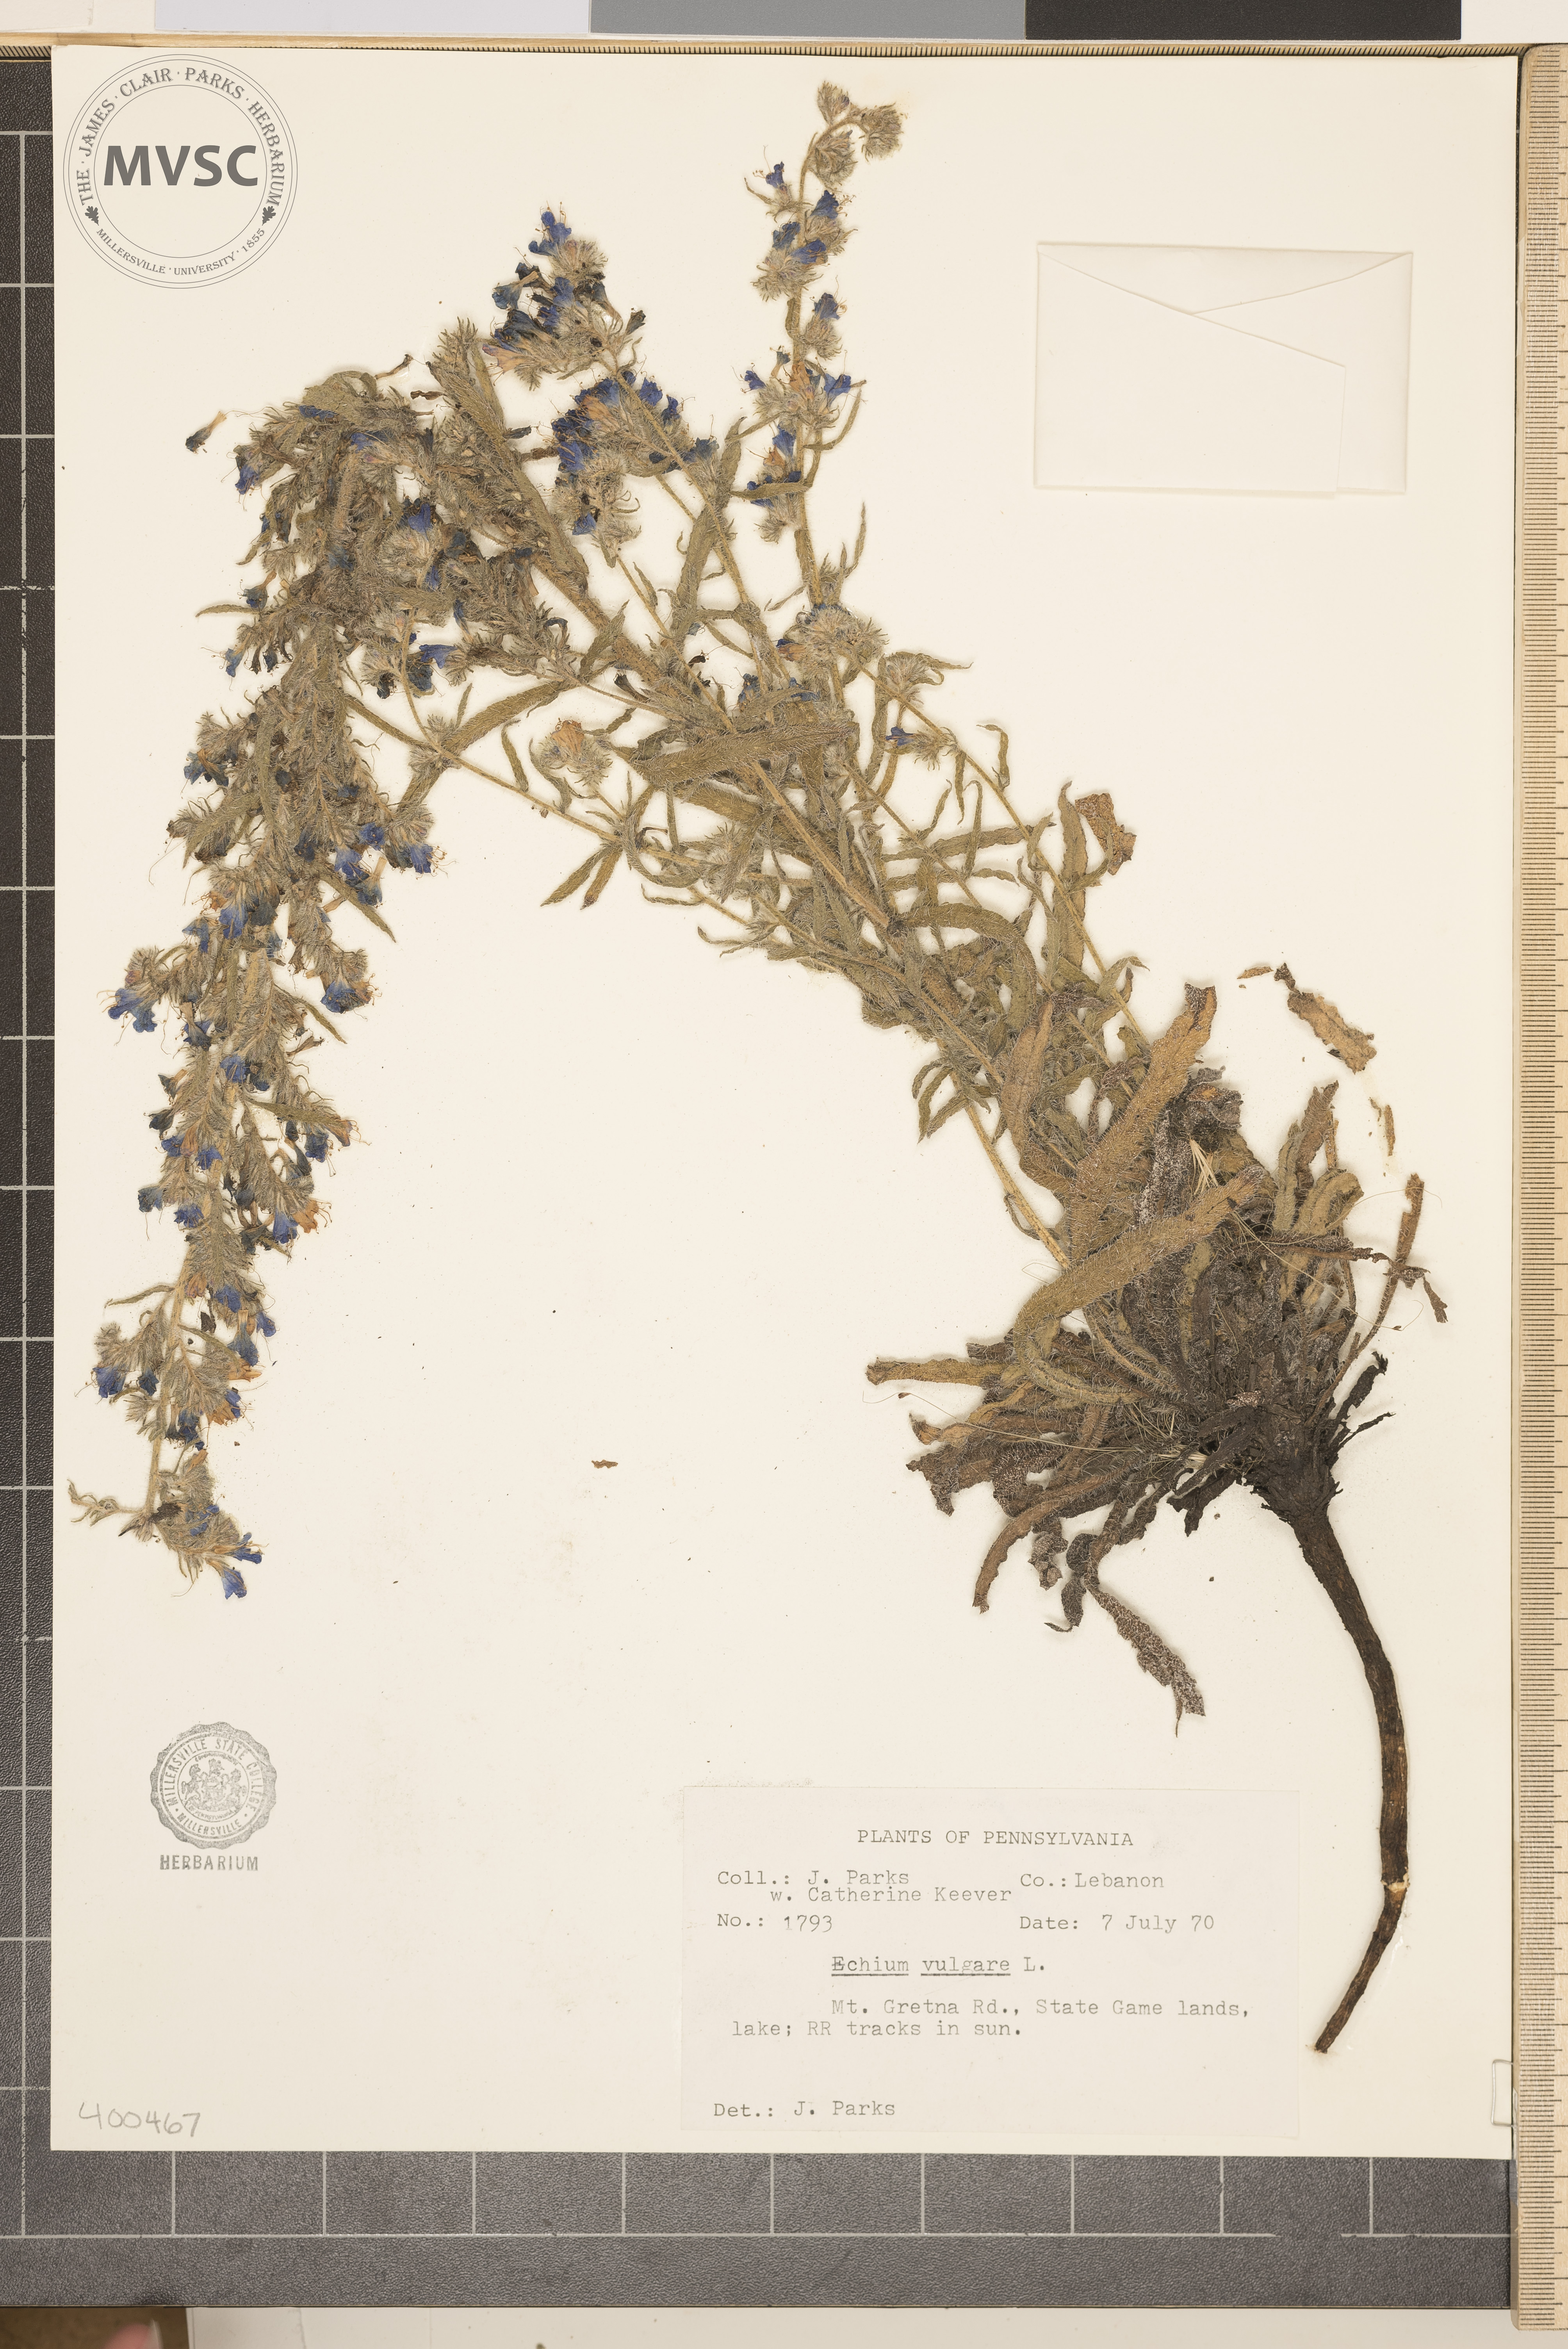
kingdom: Plantae
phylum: Tracheophyta
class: Magnoliopsida
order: Boraginales
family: Boraginaceae
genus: Echium
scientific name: Echium vulgare
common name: Common viper's bugloss
